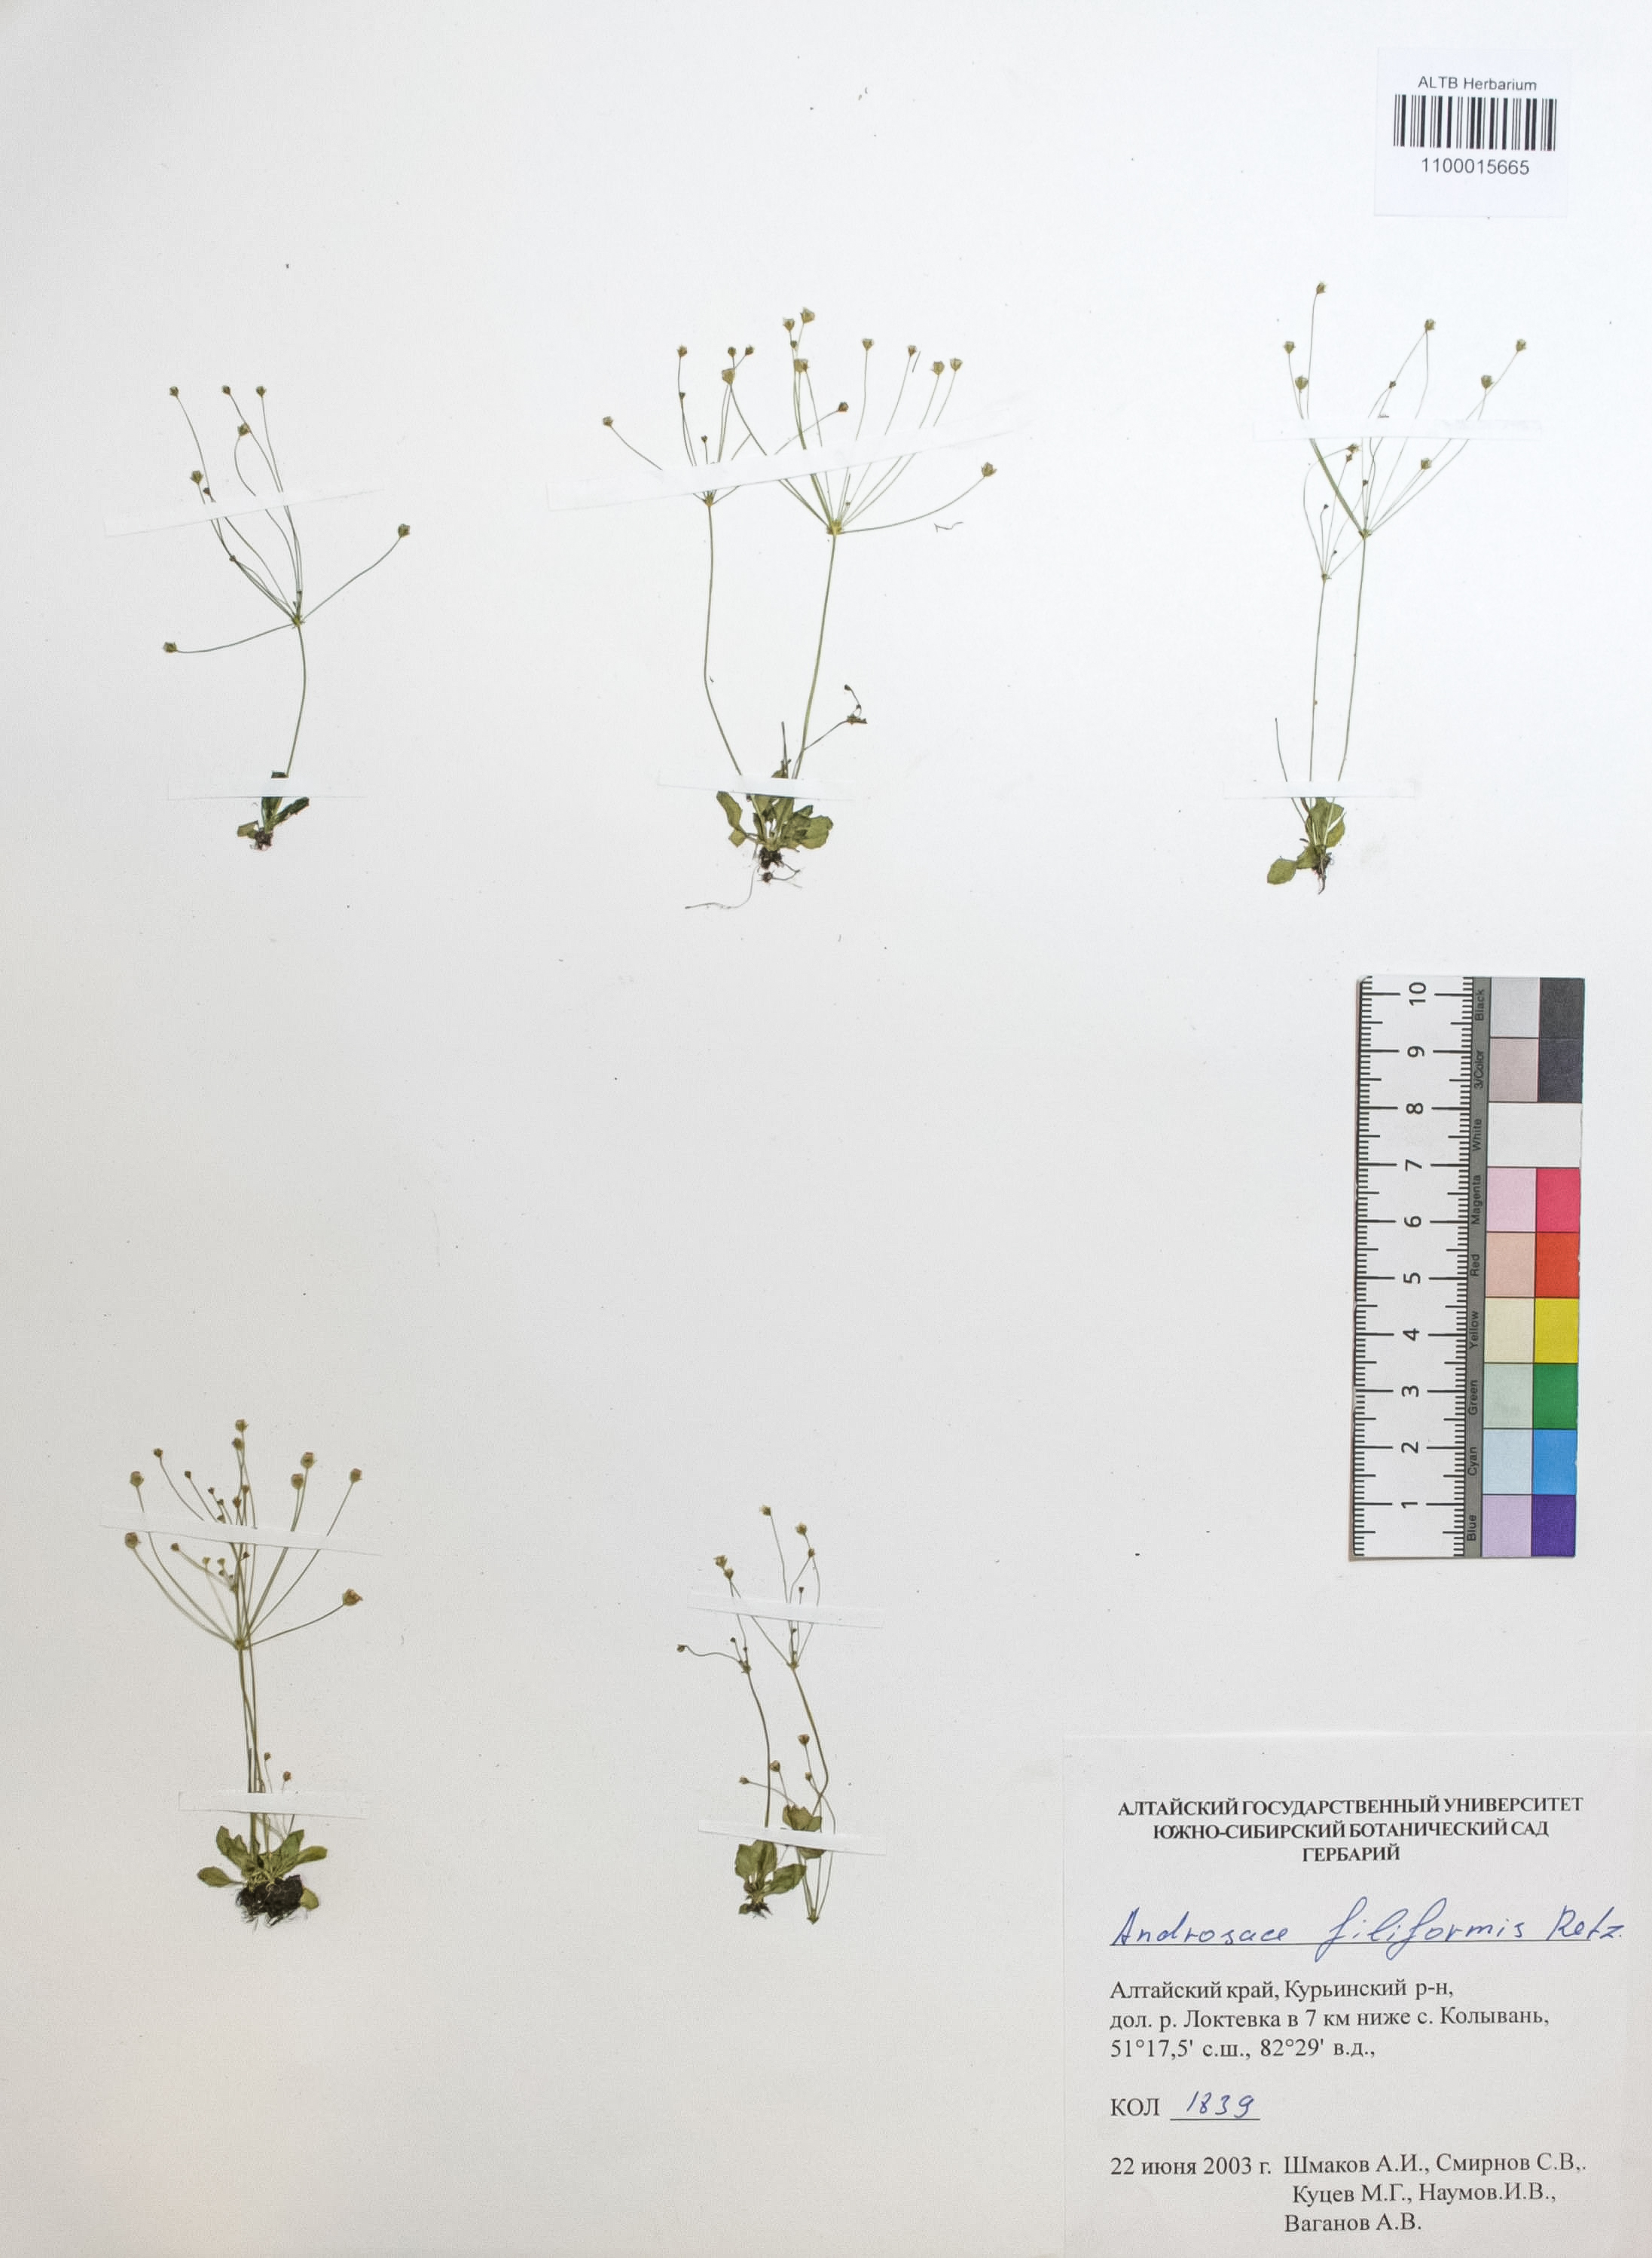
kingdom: Plantae
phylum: Tracheophyta
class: Magnoliopsida
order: Ericales
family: Primulaceae
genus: Androsace
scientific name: Androsace filiformis
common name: Filiform rock jasmine
